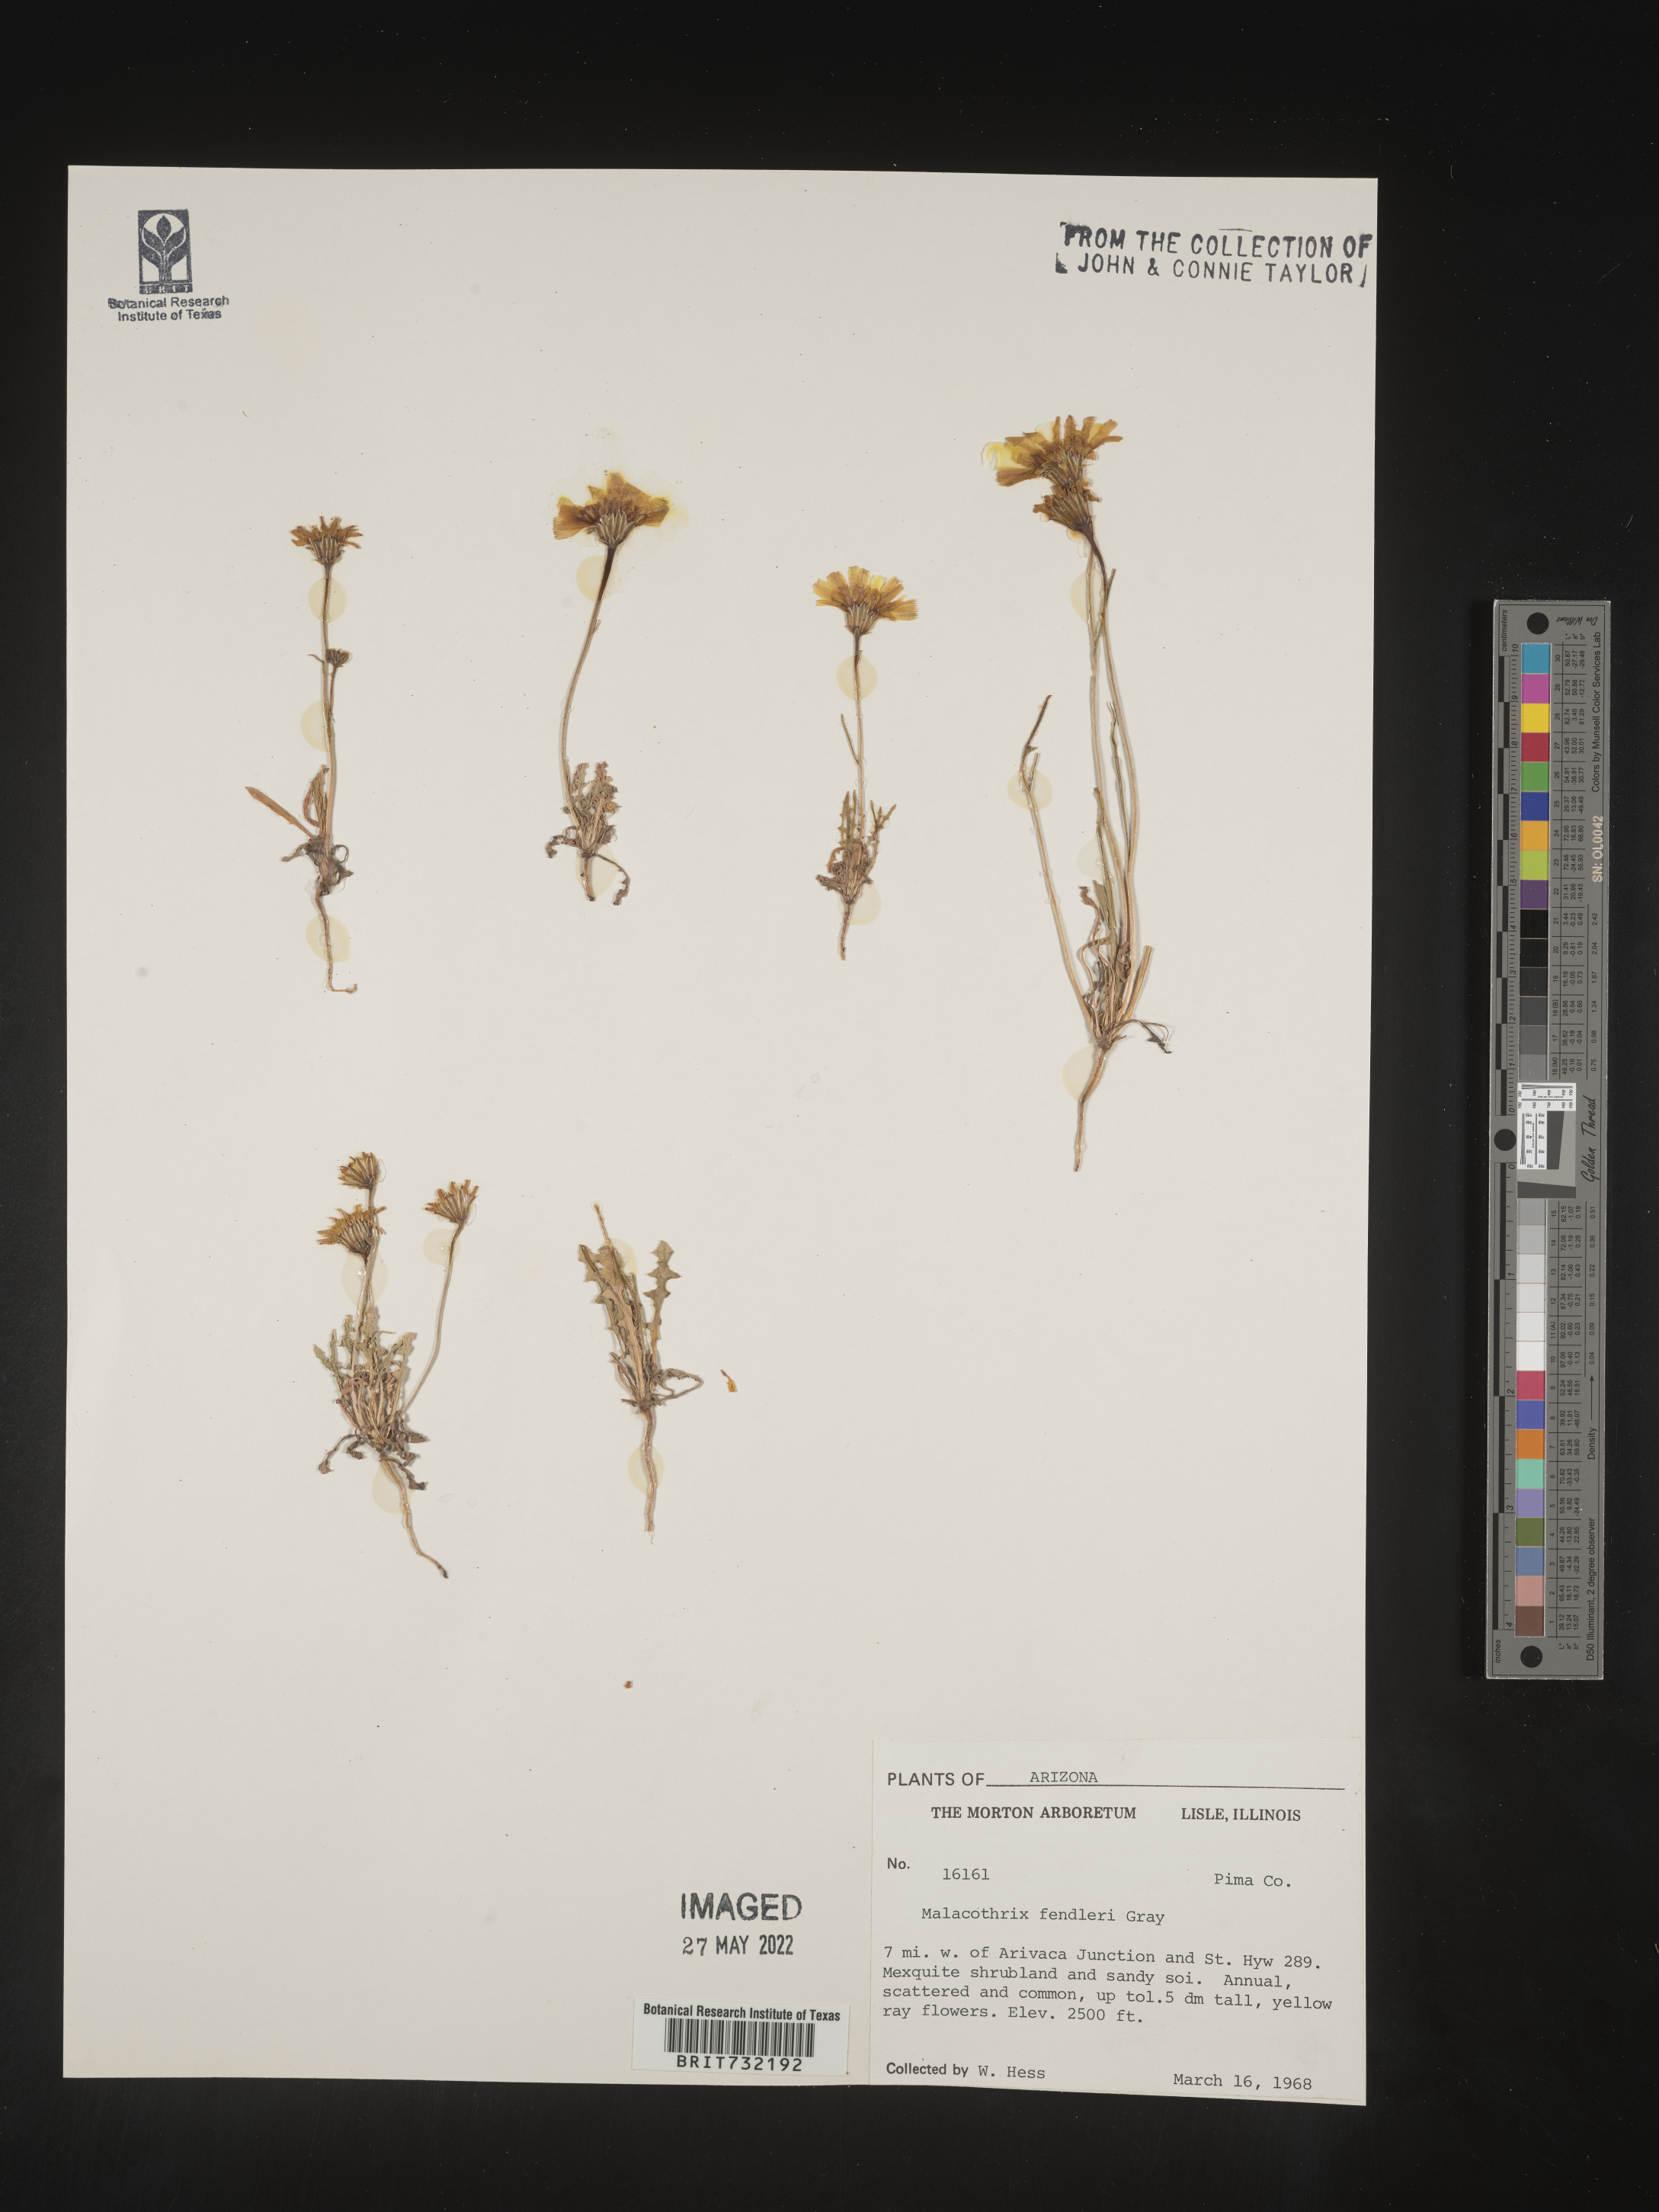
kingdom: Plantae
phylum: Tracheophyta
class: Magnoliopsida
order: Asterales
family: Asteraceae
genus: Malacothrix
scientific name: Malacothrix
